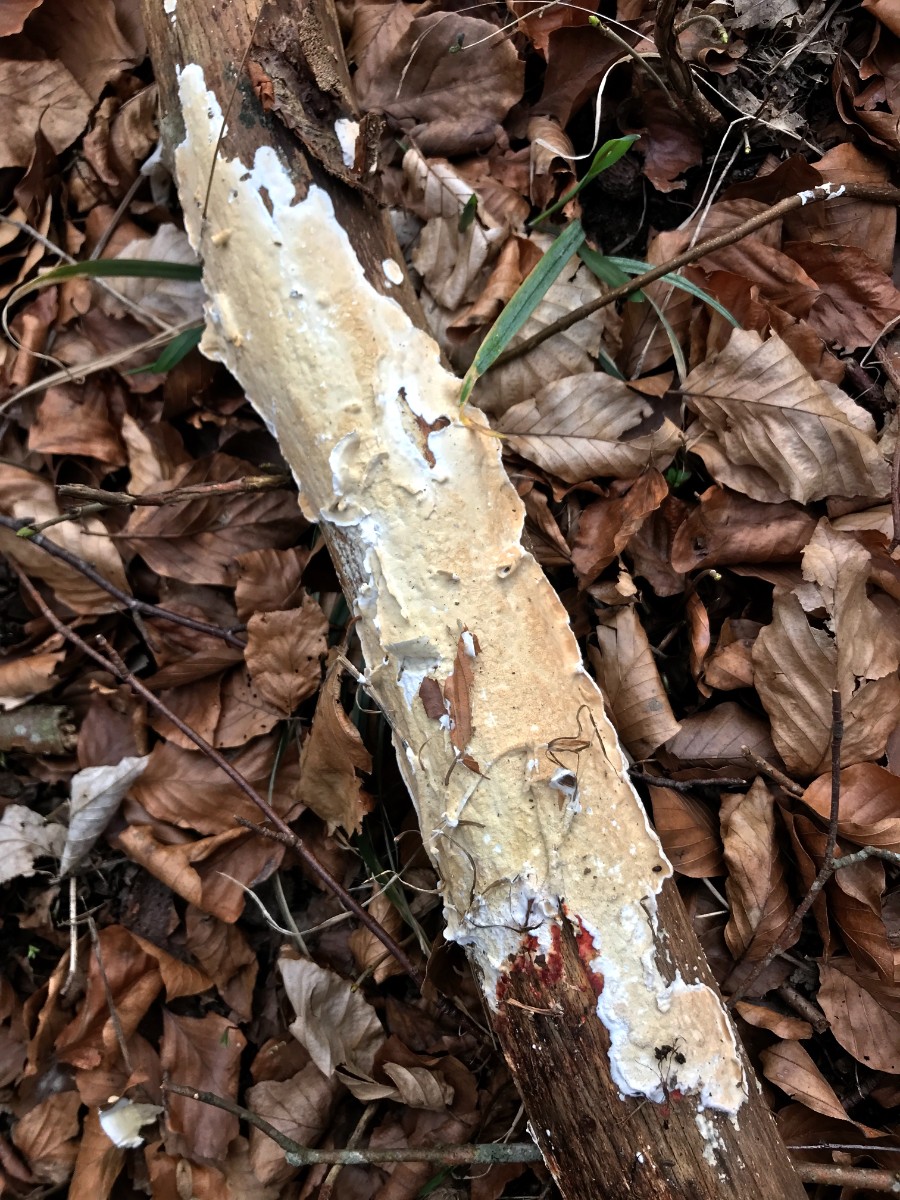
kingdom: Fungi
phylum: Basidiomycota
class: Agaricomycetes
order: Polyporales
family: Irpicaceae
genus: Byssomerulius
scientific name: Byssomerulius corium
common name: læder-åresvamp
